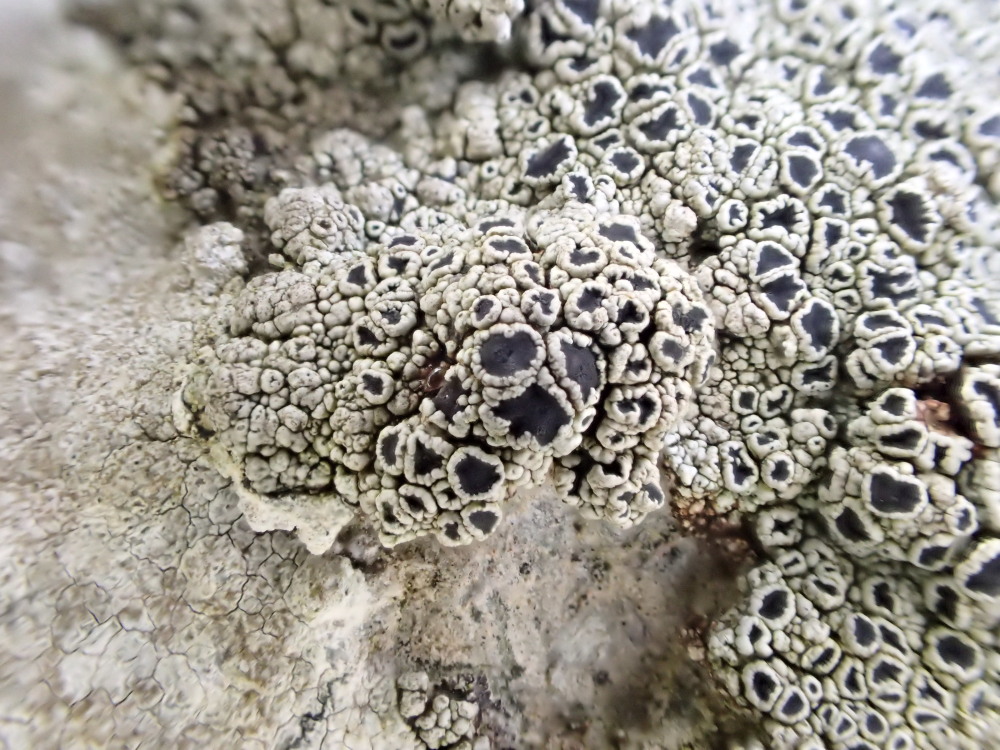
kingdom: Fungi
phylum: Ascomycota
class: Lecanoromycetes
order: Lecanorales
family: Tephromelataceae
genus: Tephromela
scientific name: Tephromela atra
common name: sortfrugtet kantskivelav
